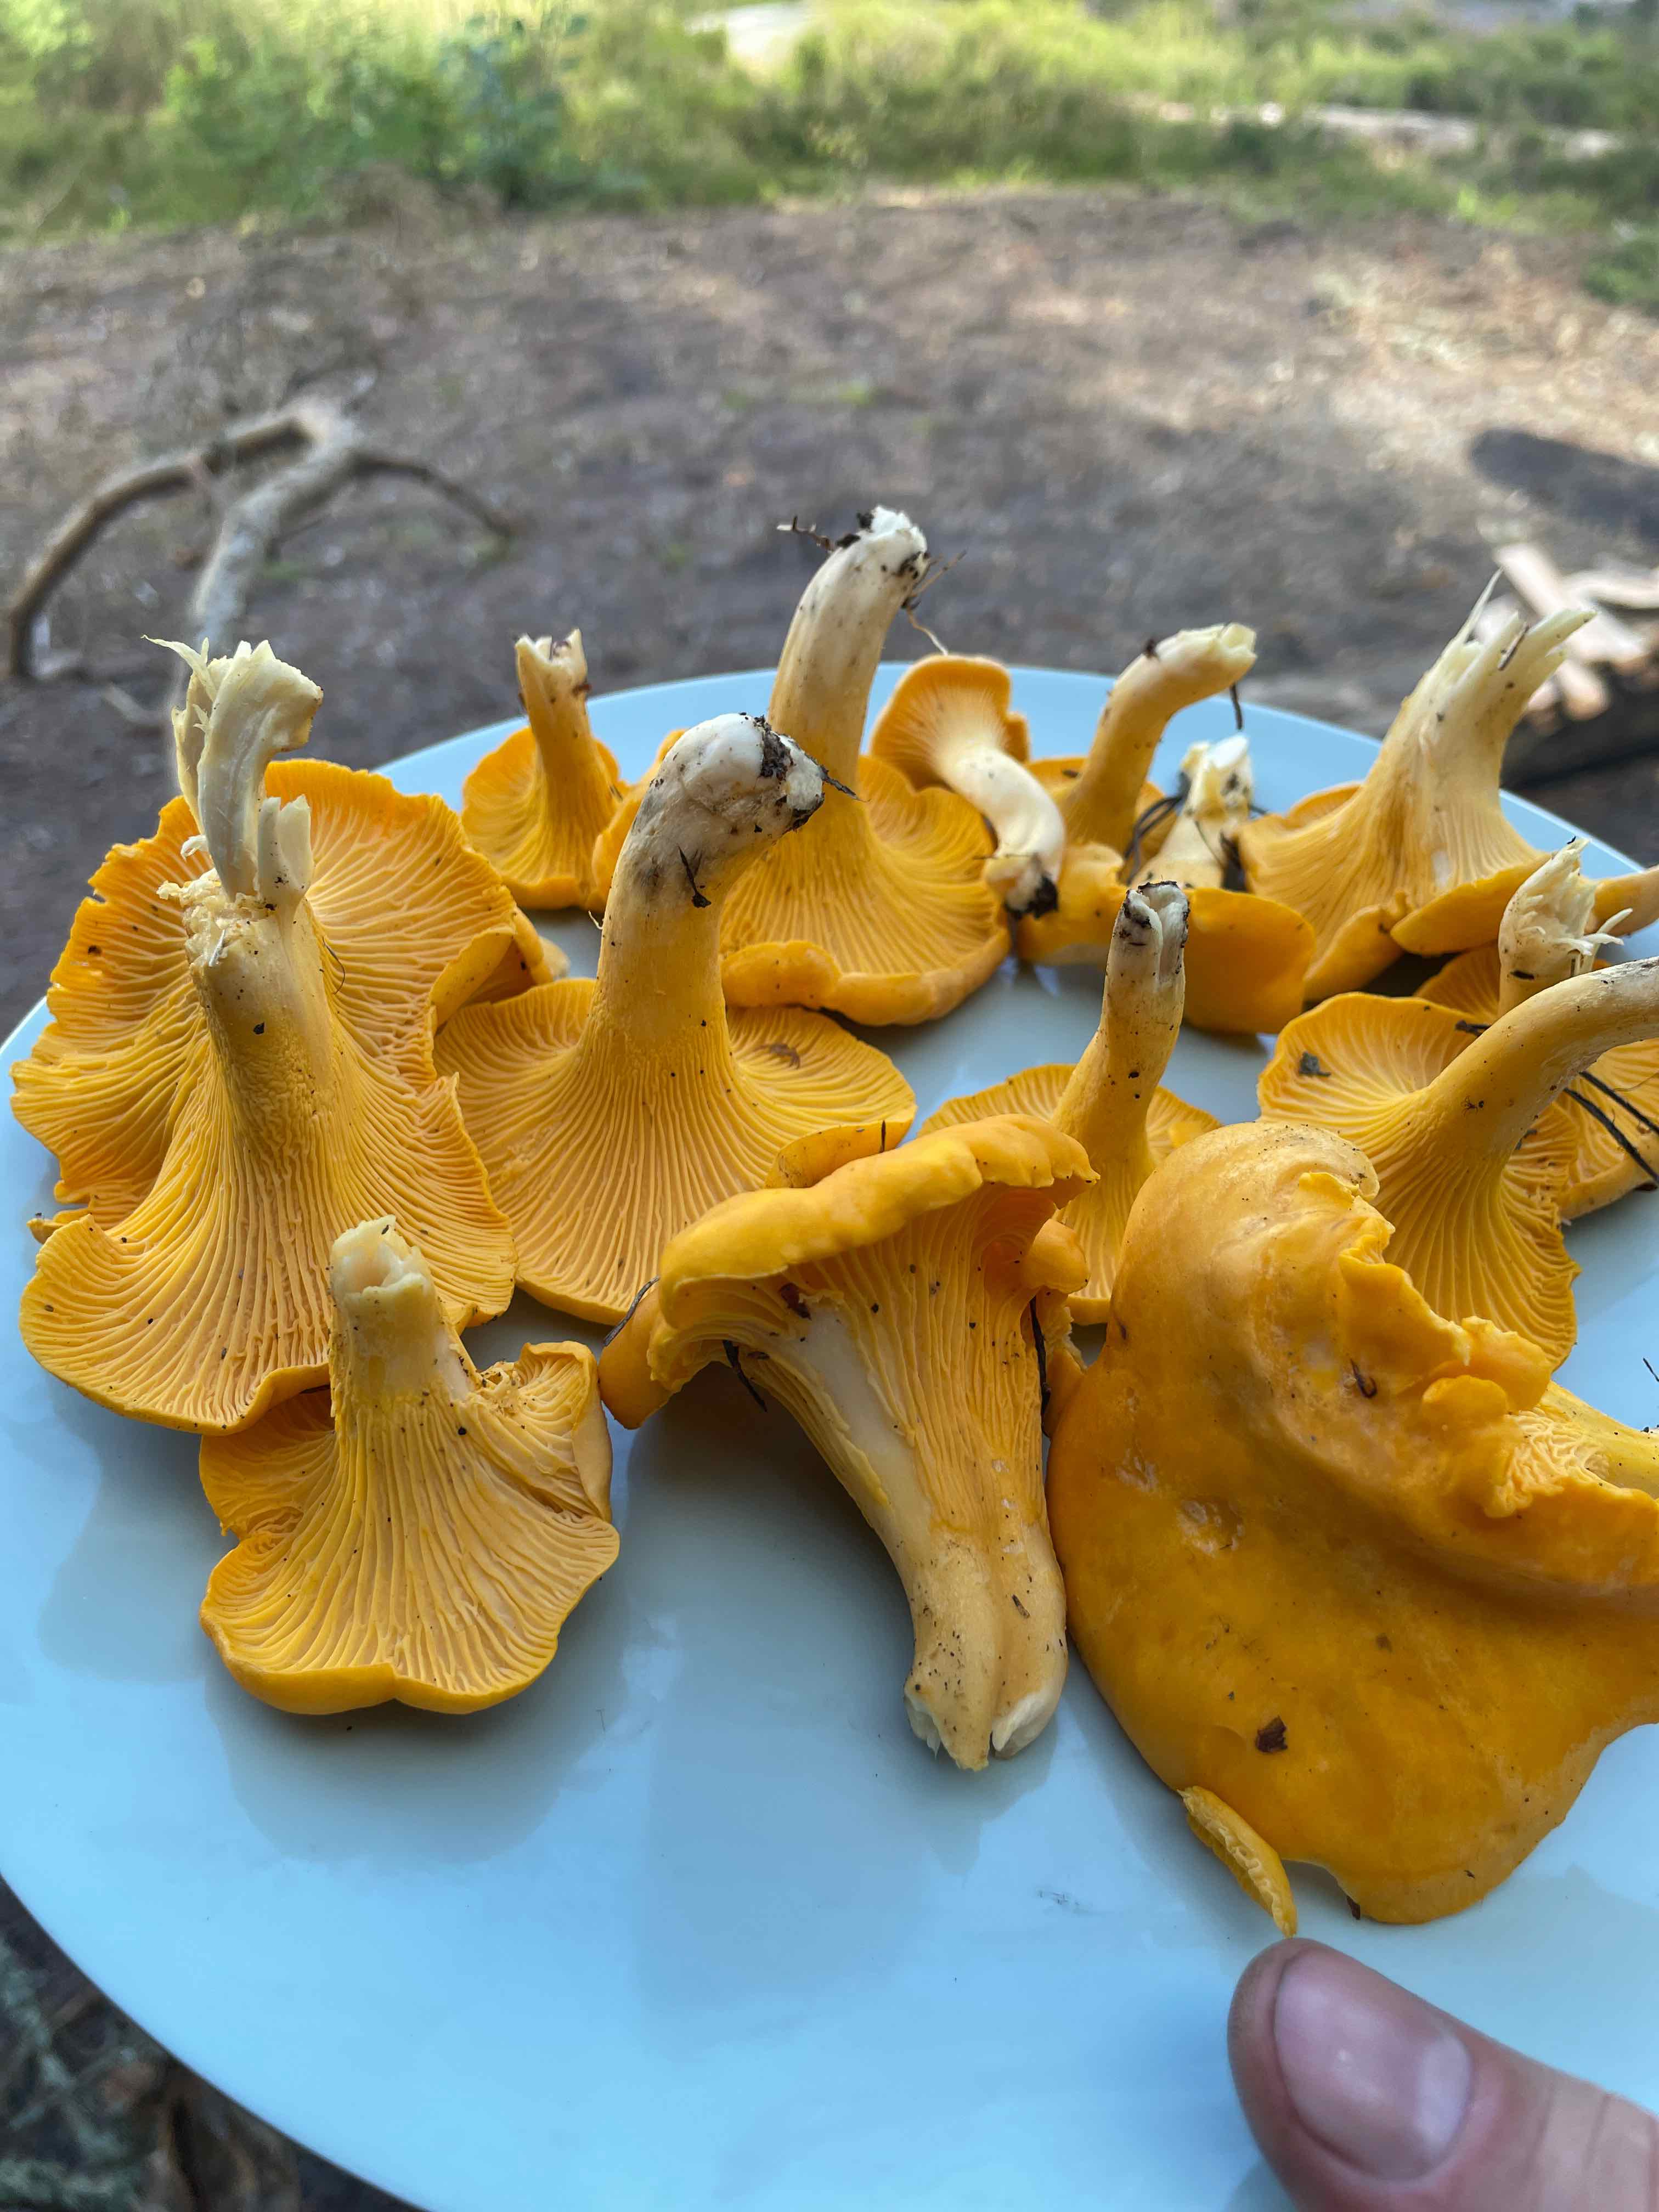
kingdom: Fungi
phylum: Basidiomycota
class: Agaricomycetes
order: Cantharellales
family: Hydnaceae
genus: Cantharellus
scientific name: Cantharellus cibarius
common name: almindelig kantarel
